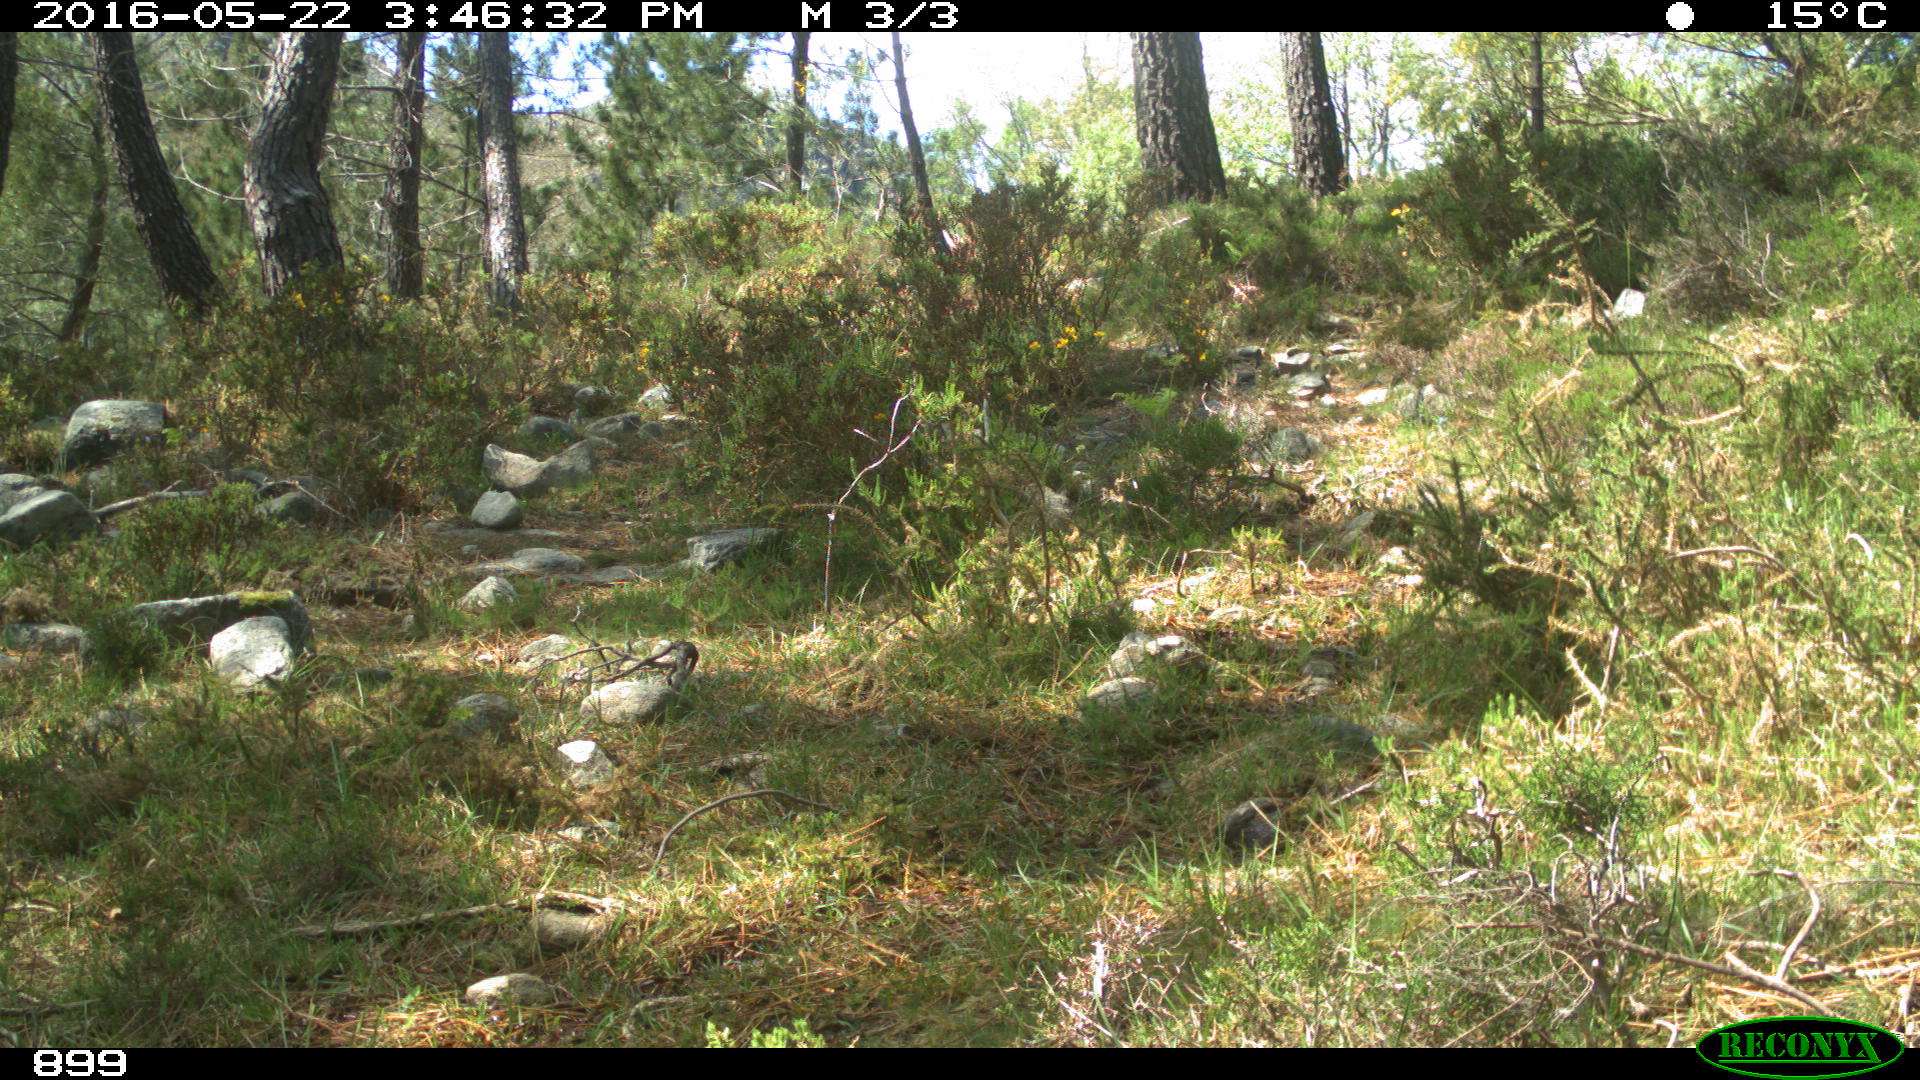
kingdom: Animalia
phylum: Chordata
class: Mammalia
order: Artiodactyla
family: Cervidae
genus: Capreolus
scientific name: Capreolus capreolus
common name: Western roe deer
